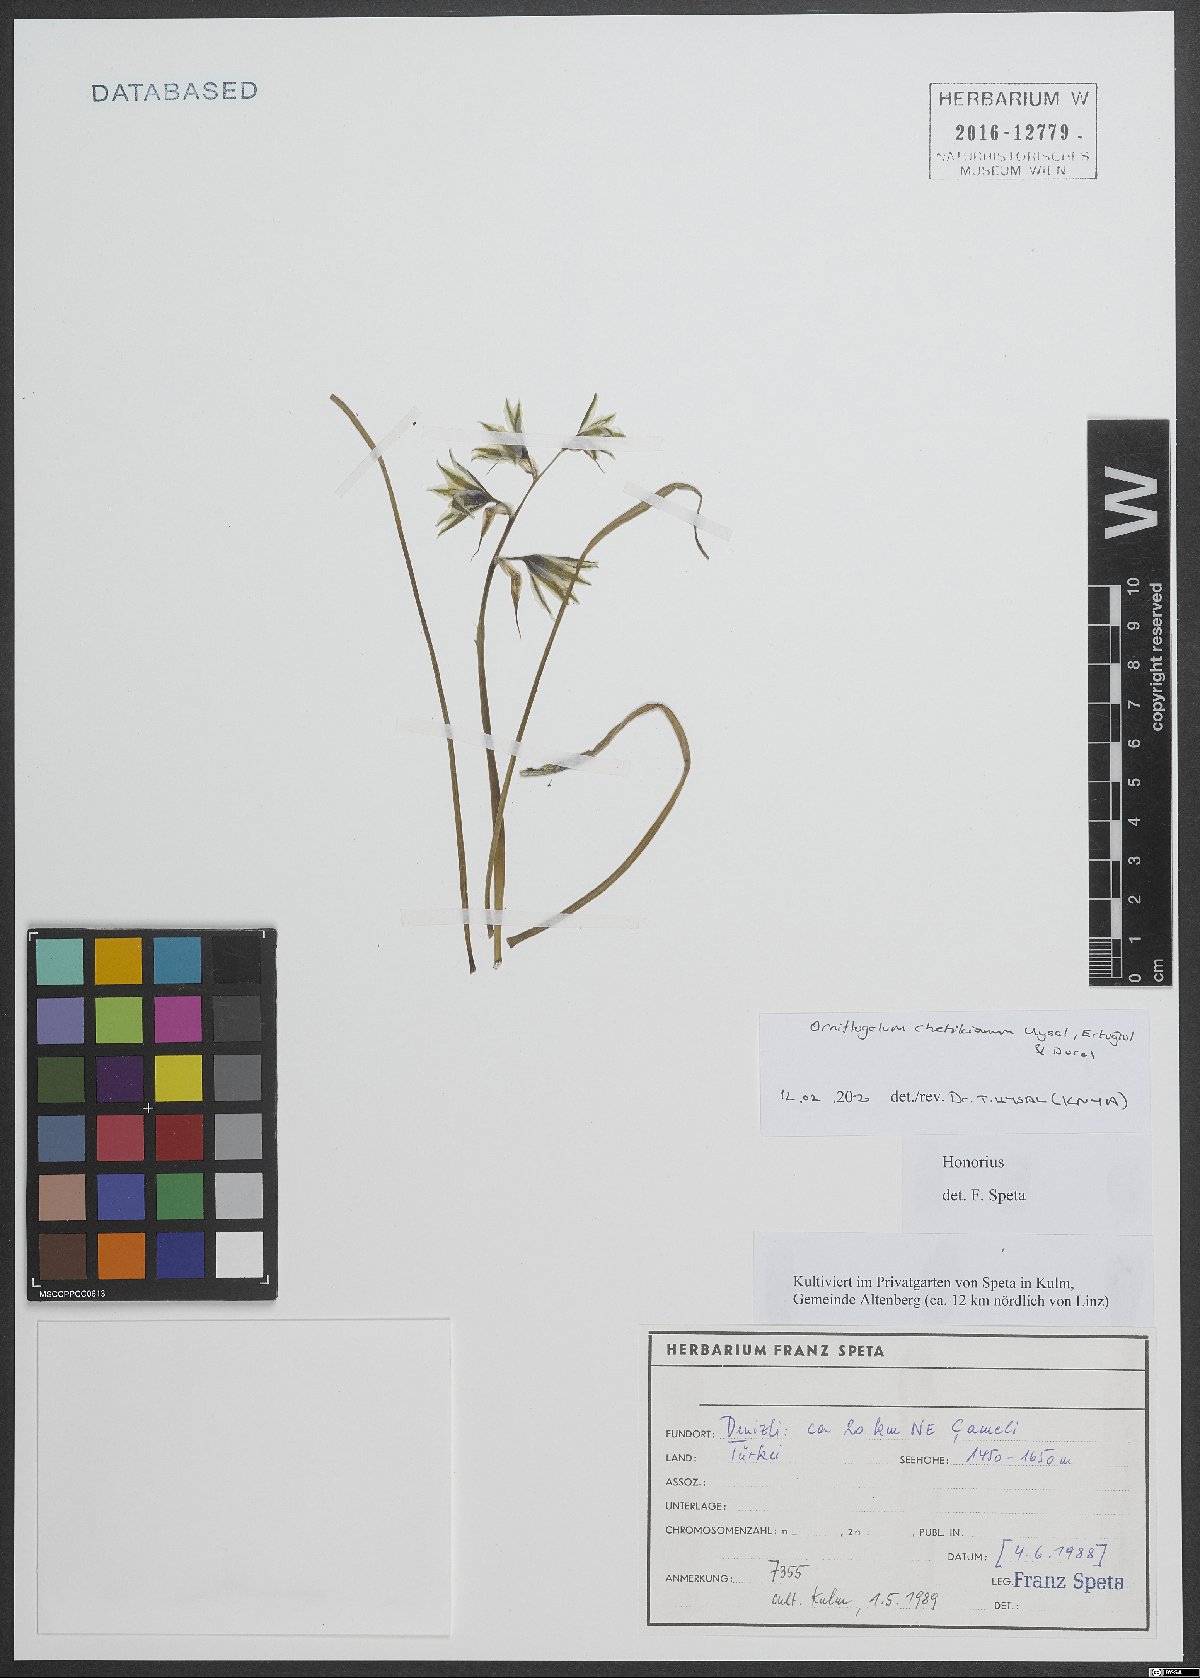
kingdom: Plantae
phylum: Tracheophyta
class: Liliopsida
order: Asparagales
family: Asparagaceae
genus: Ornithogalum
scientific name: Ornithogalum chetikianum
